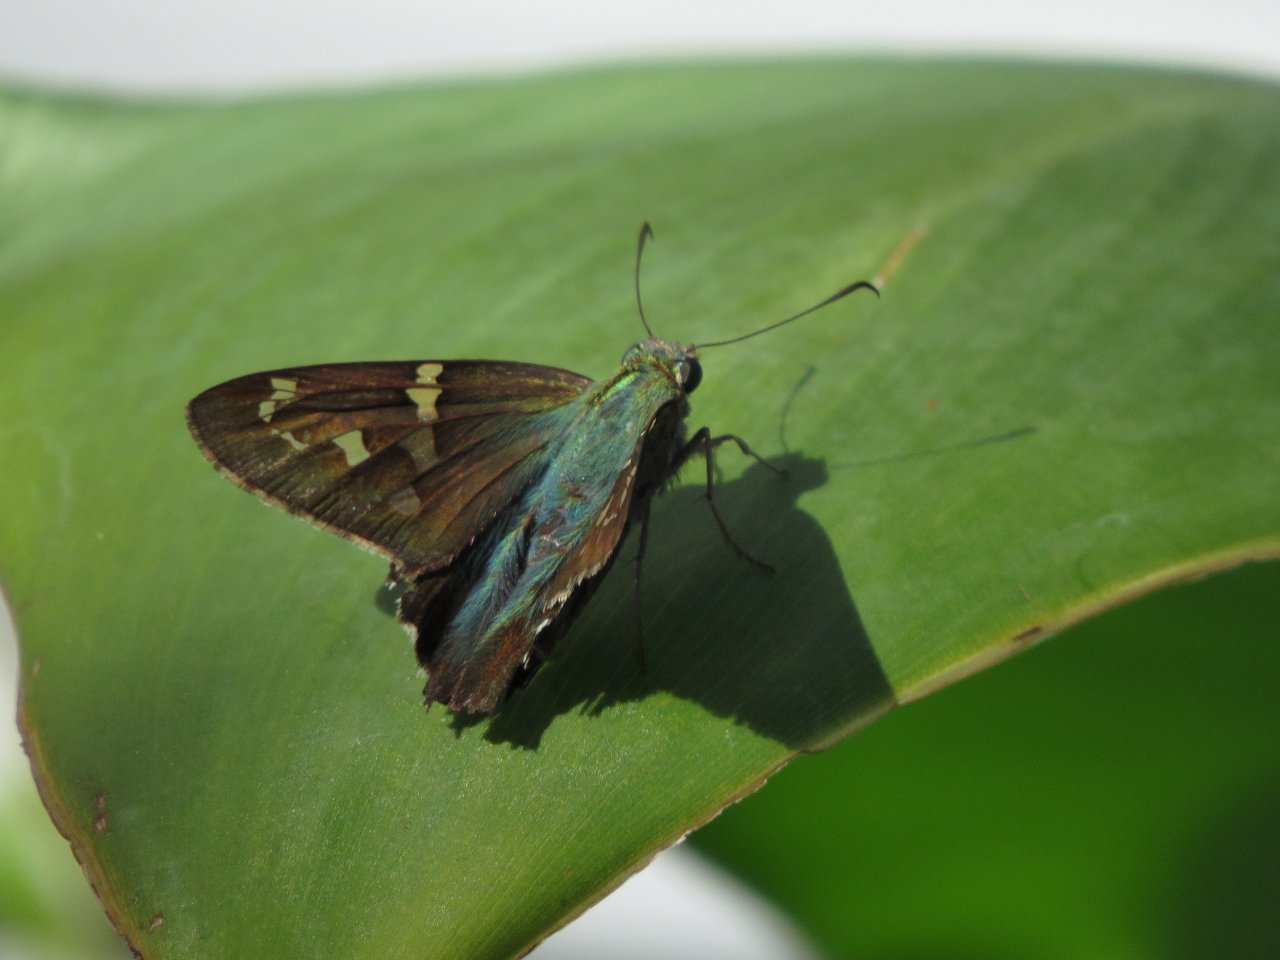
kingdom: Animalia
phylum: Arthropoda
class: Insecta
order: Lepidoptera
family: Hesperiidae
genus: Urbanus
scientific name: Urbanus proteus
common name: Long-tailed Skipper
